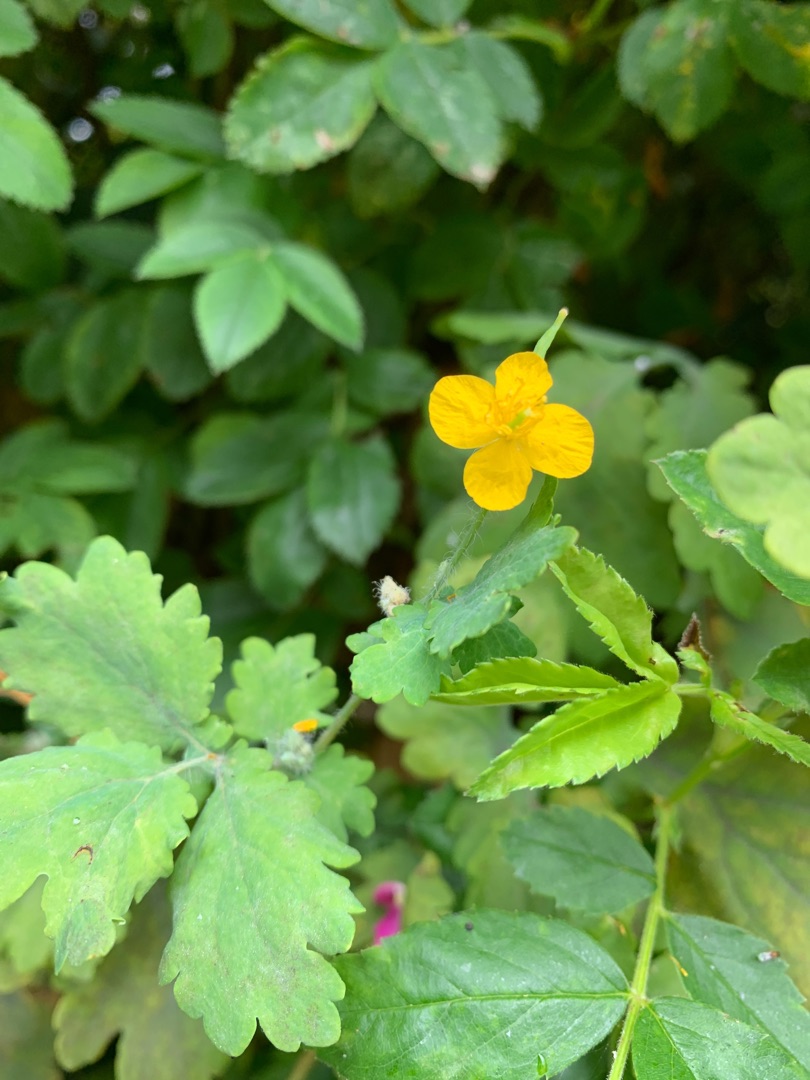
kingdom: Plantae
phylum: Tracheophyta
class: Magnoliopsida
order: Ranunculales
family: Papaveraceae
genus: Chelidonium
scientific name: Chelidonium majus
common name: Svaleurt
